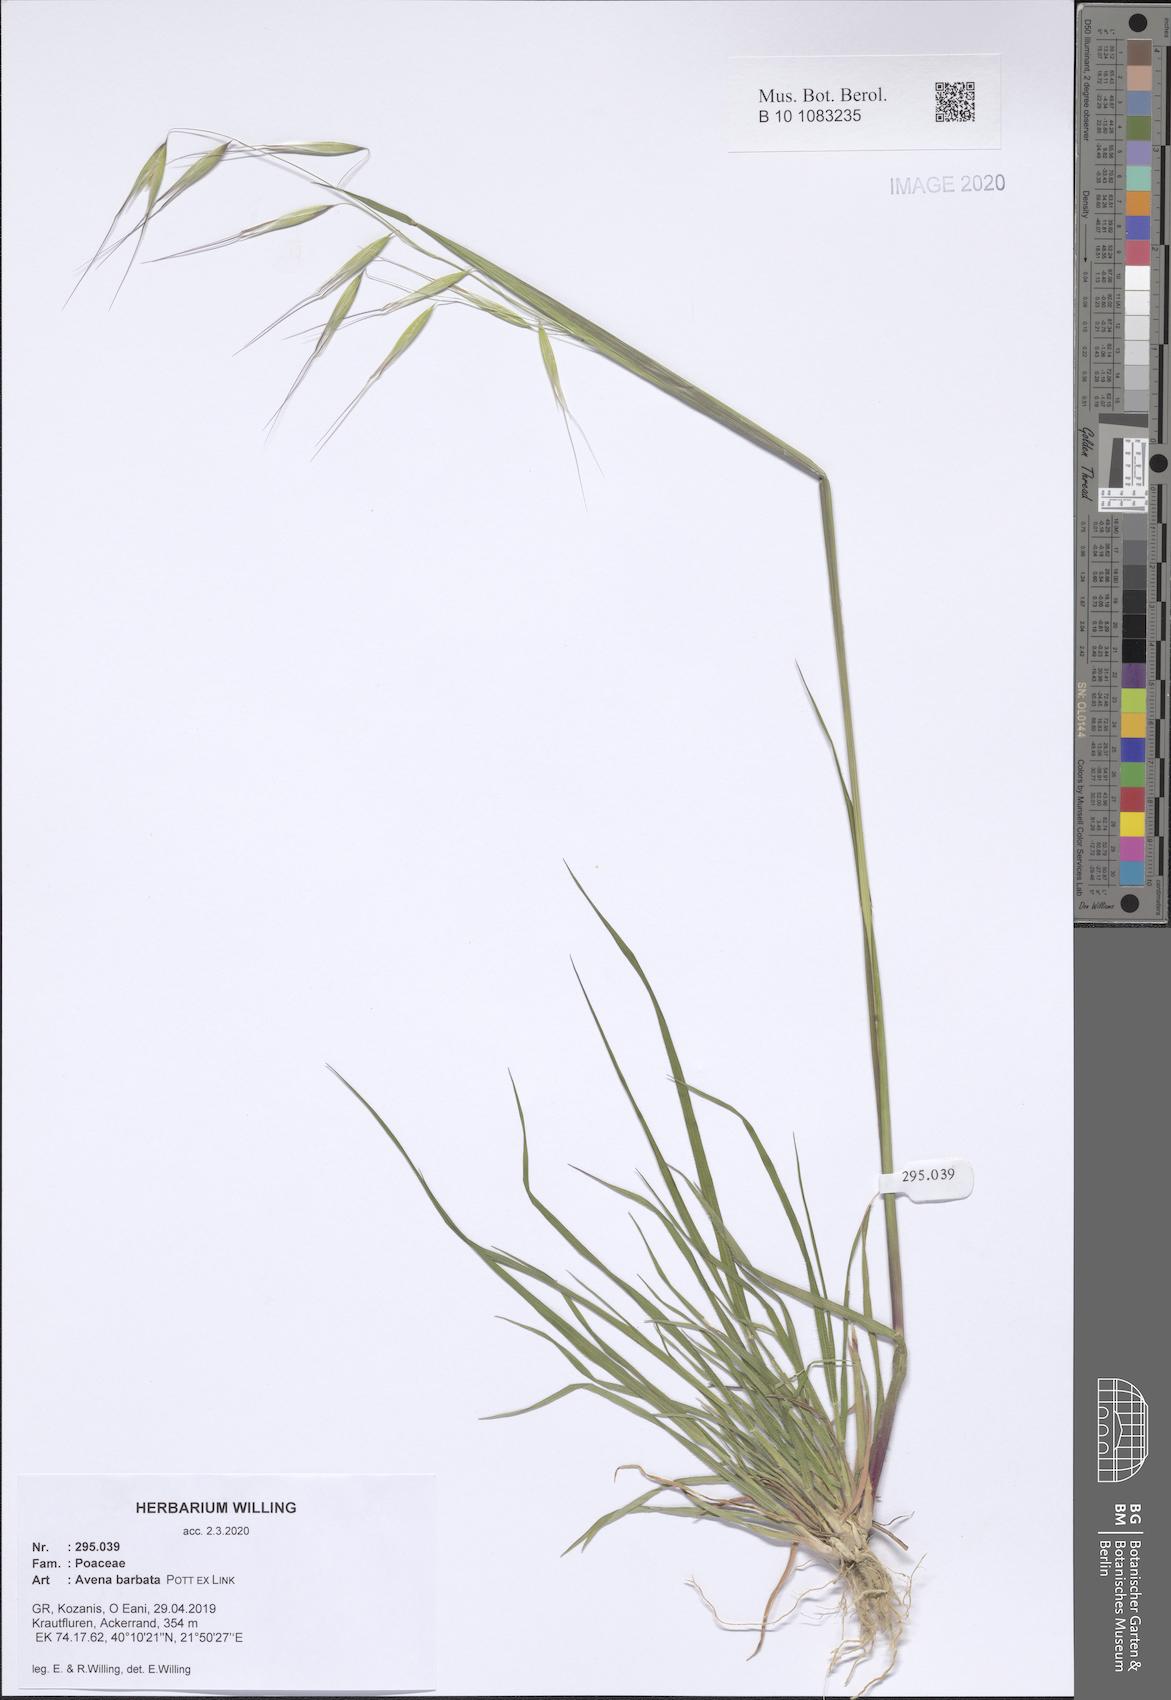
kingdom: Plantae
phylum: Tracheophyta
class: Liliopsida
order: Poales
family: Poaceae
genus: Avena
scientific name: Avena barbata
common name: Slender oat
